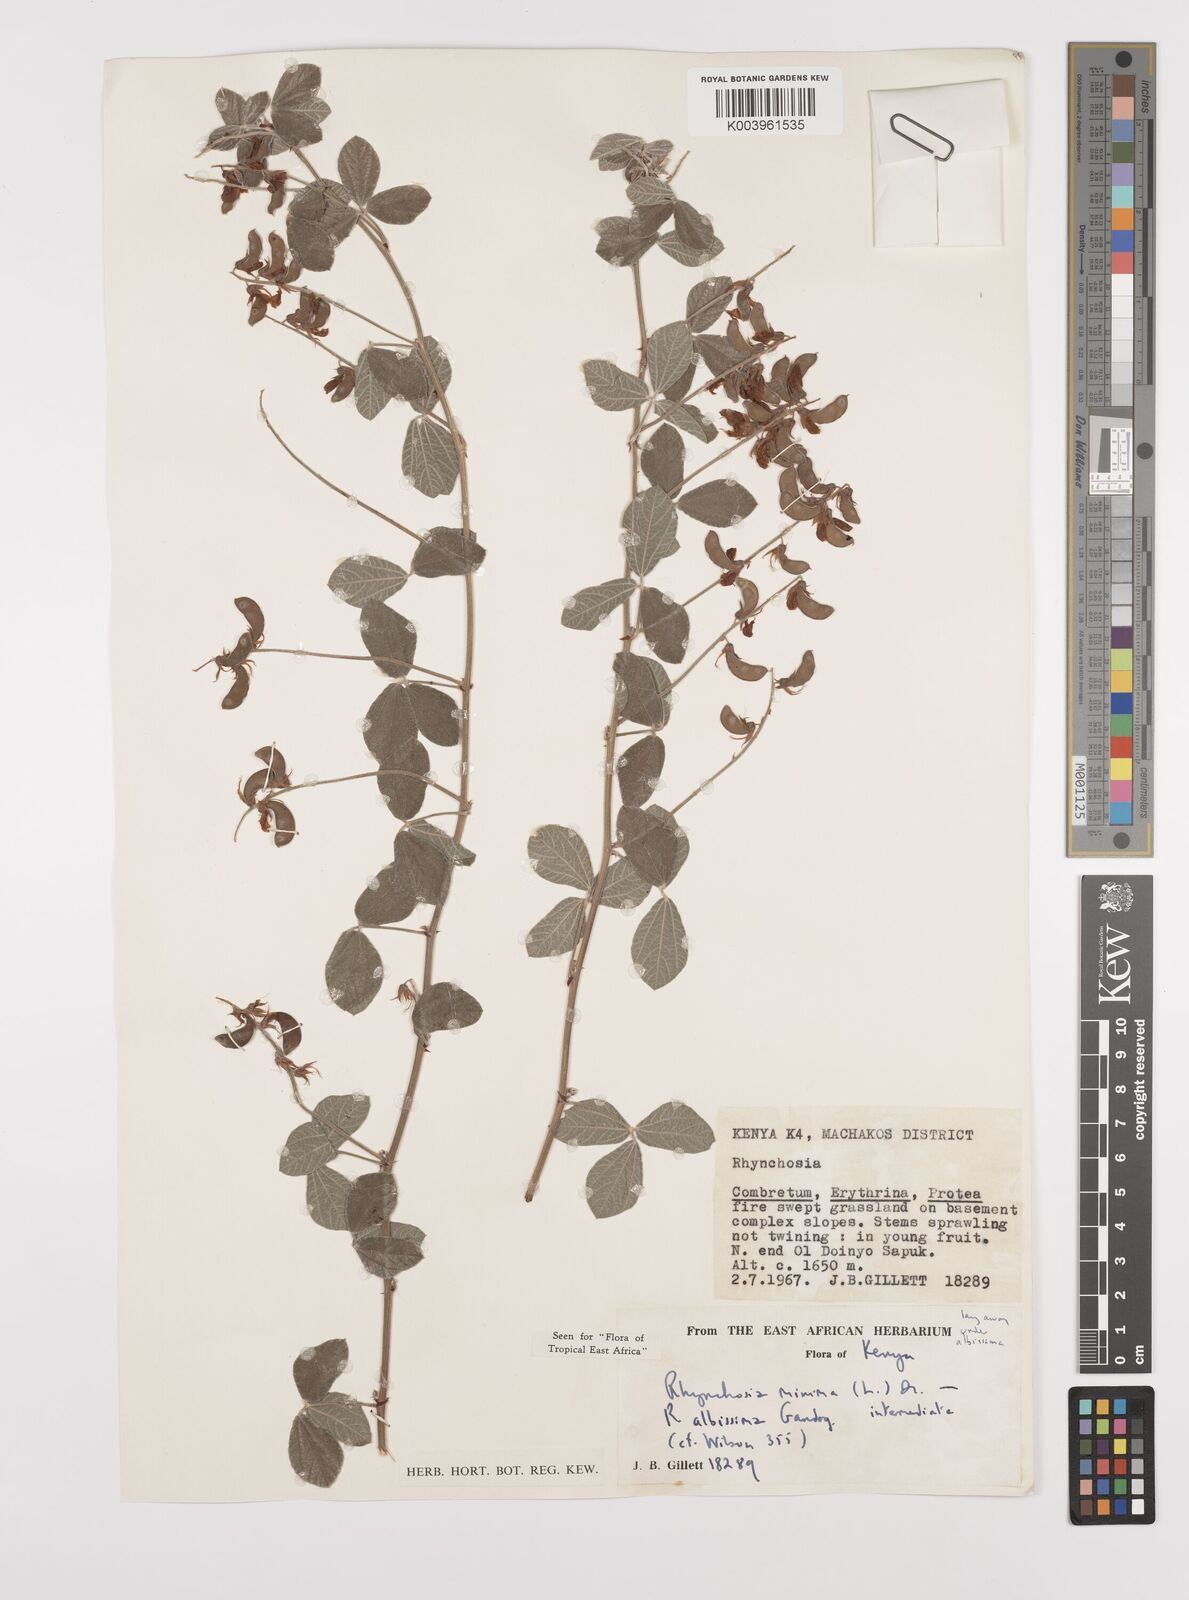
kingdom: Plantae
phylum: Tracheophyta
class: Magnoliopsida
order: Fabales
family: Fabaceae
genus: Rhynchosia
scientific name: Rhynchosia albissima
